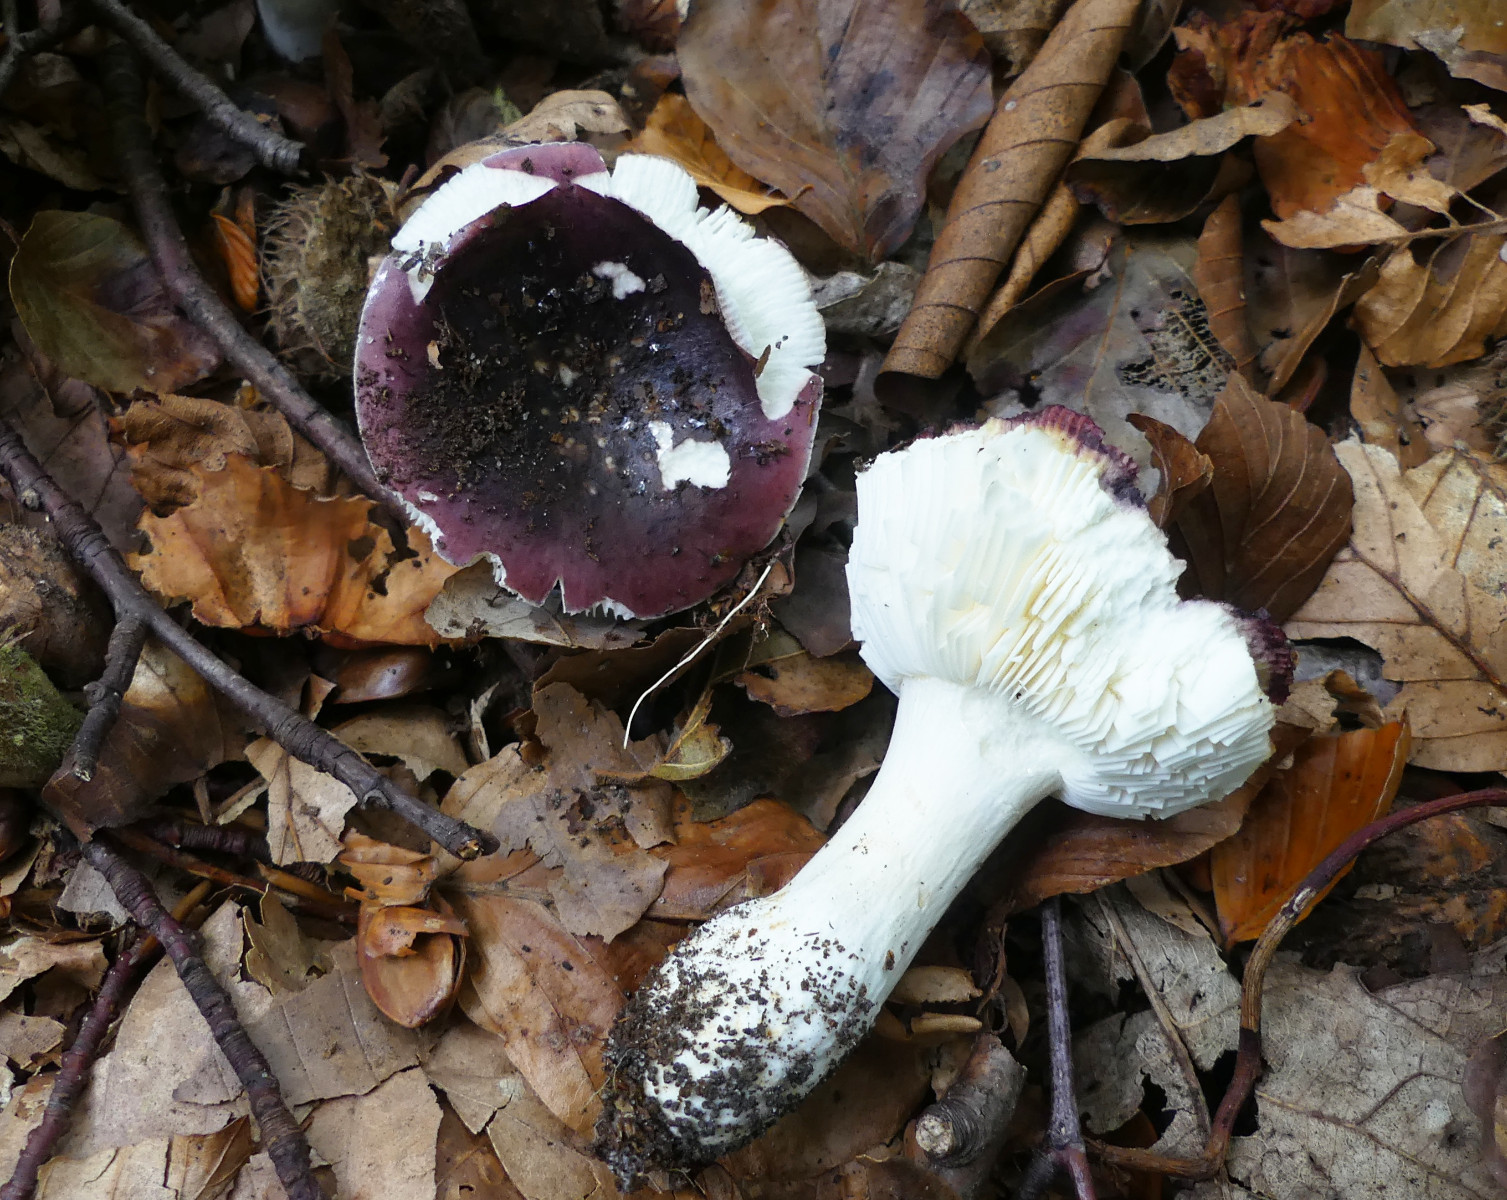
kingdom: Fungi
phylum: Basidiomycota
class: Agaricomycetes
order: Russulales
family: Russulaceae
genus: Russula
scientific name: Russula atropurpurea
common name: purpurbroget skørhat
